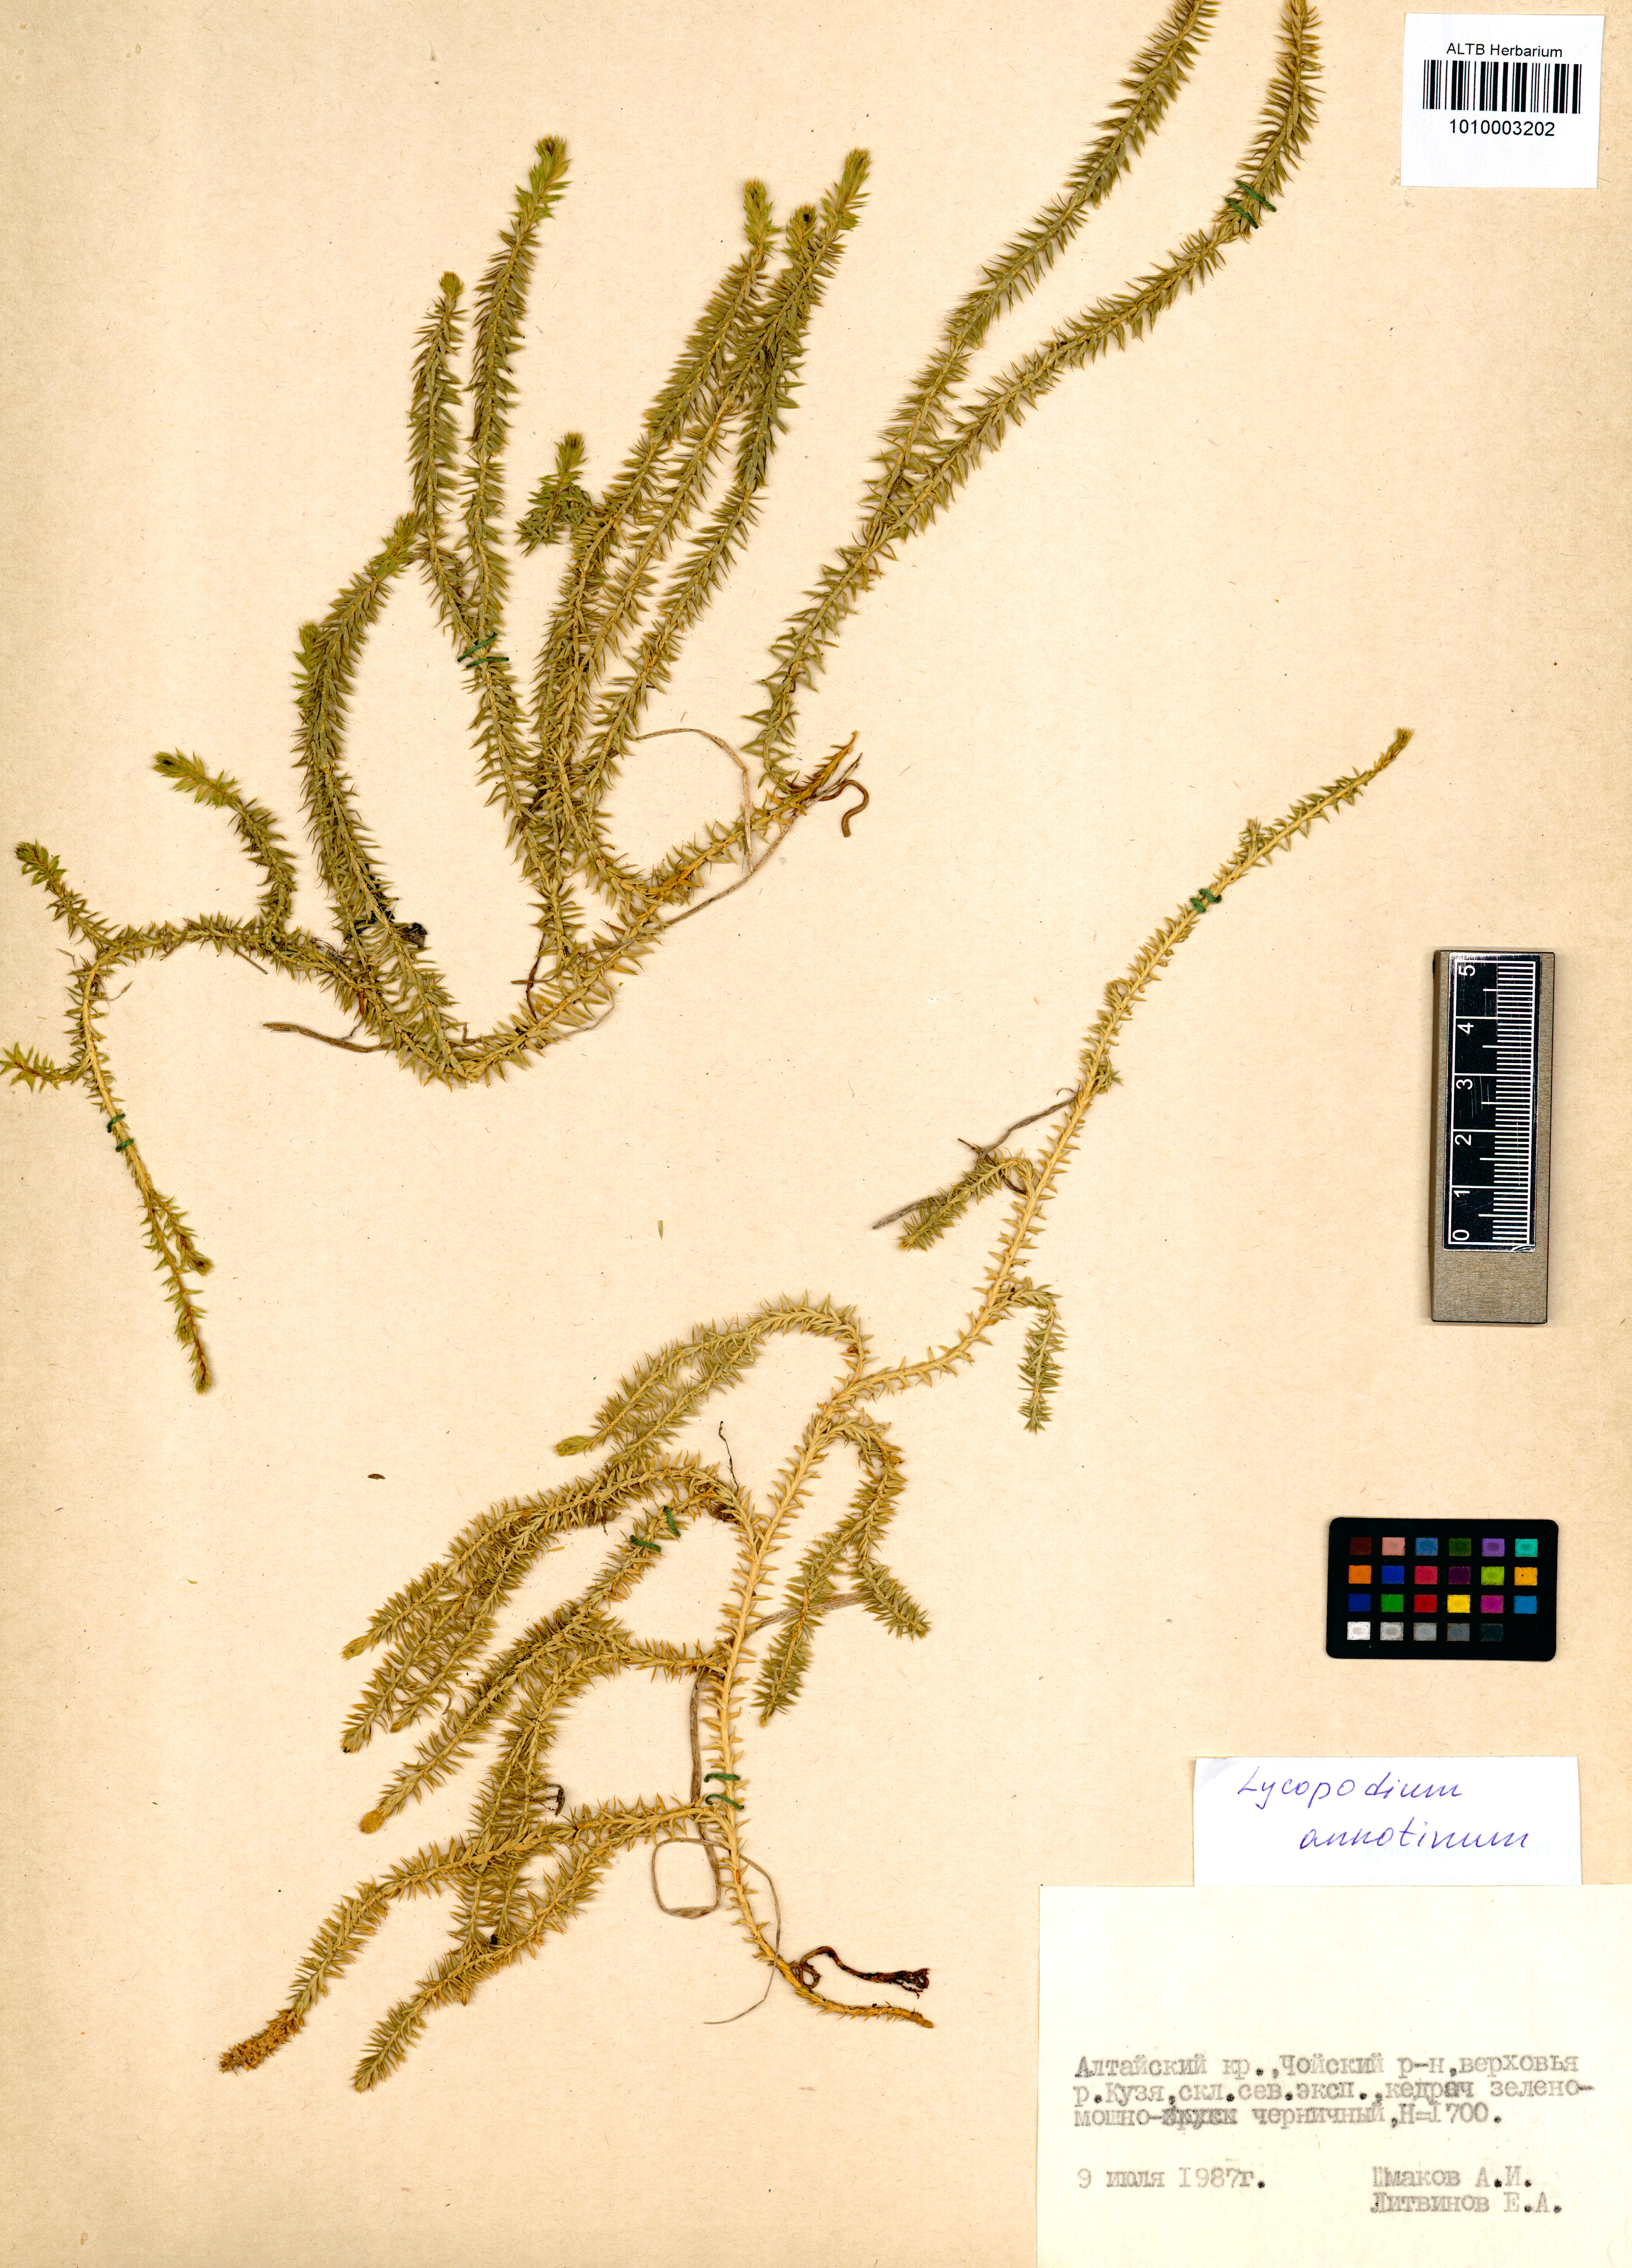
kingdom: Plantae
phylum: Tracheophyta
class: Lycopodiopsida
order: Lycopodiales
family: Lycopodiaceae
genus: Spinulum
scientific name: Spinulum annotinum
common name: Interrupted club-moss
